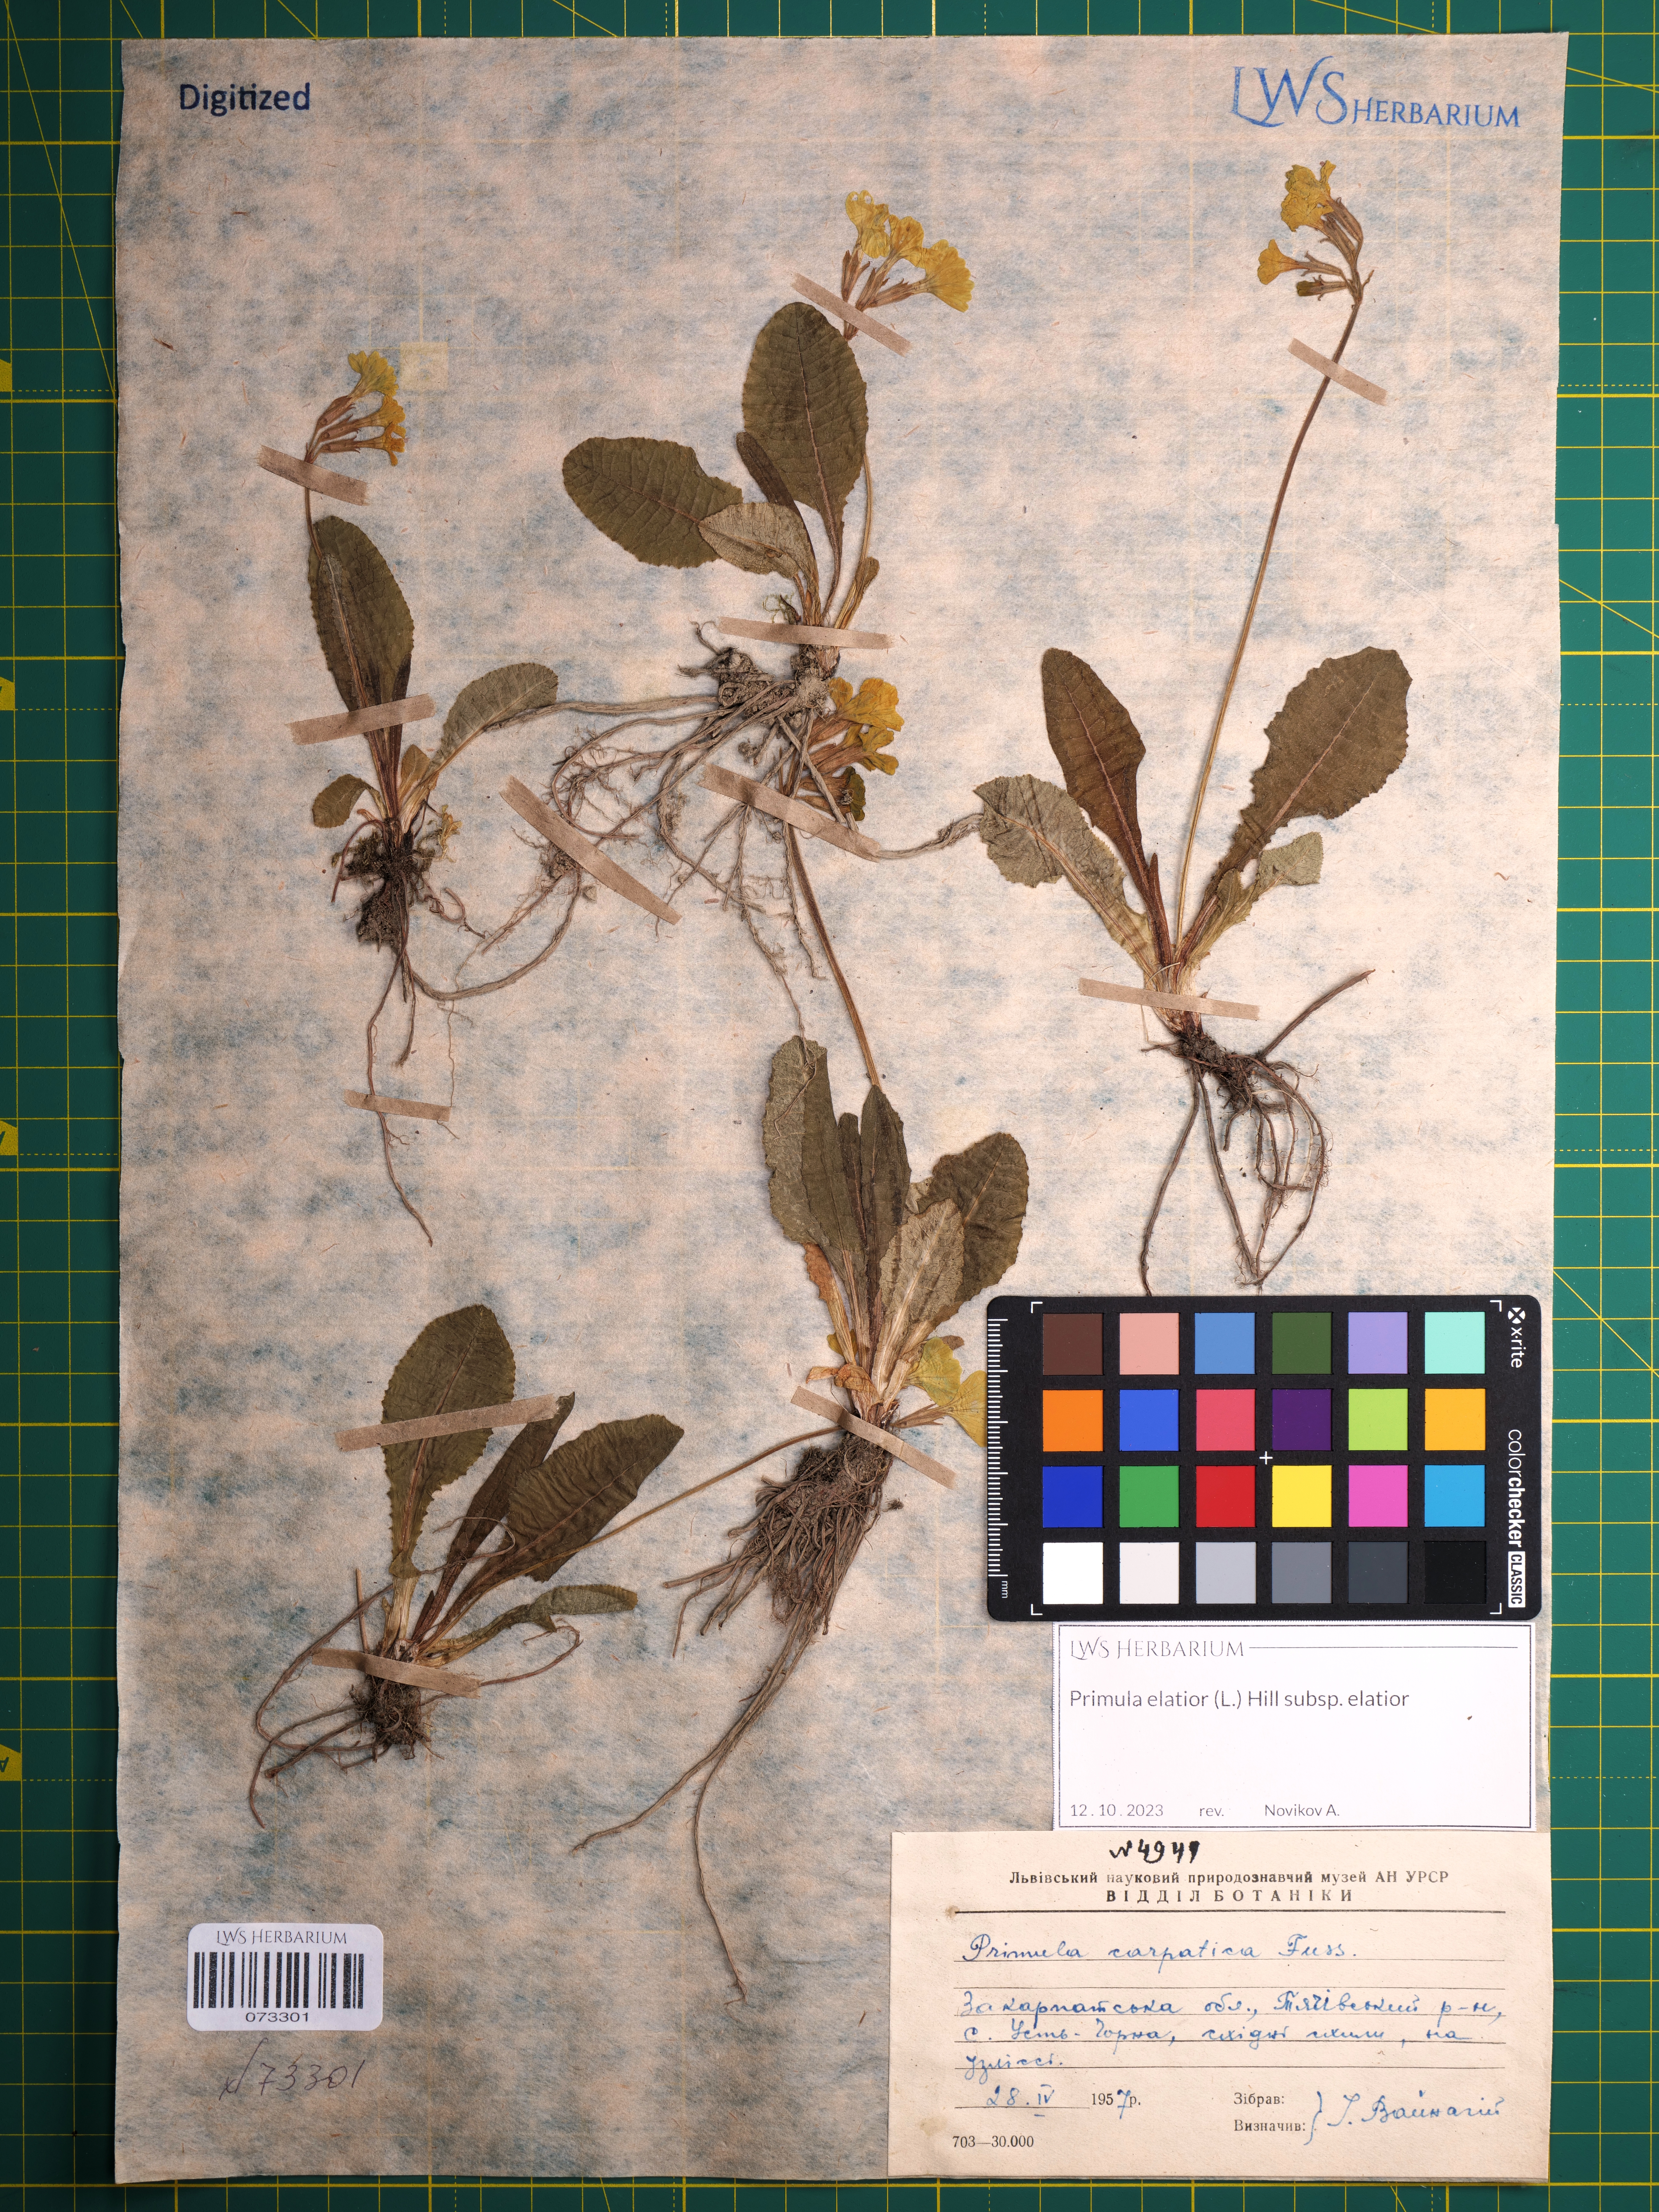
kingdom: Plantae
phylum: Tracheophyta
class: Magnoliopsida
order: Ericales
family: Primulaceae
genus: Primula
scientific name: Primula elatior
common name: Oxlip
